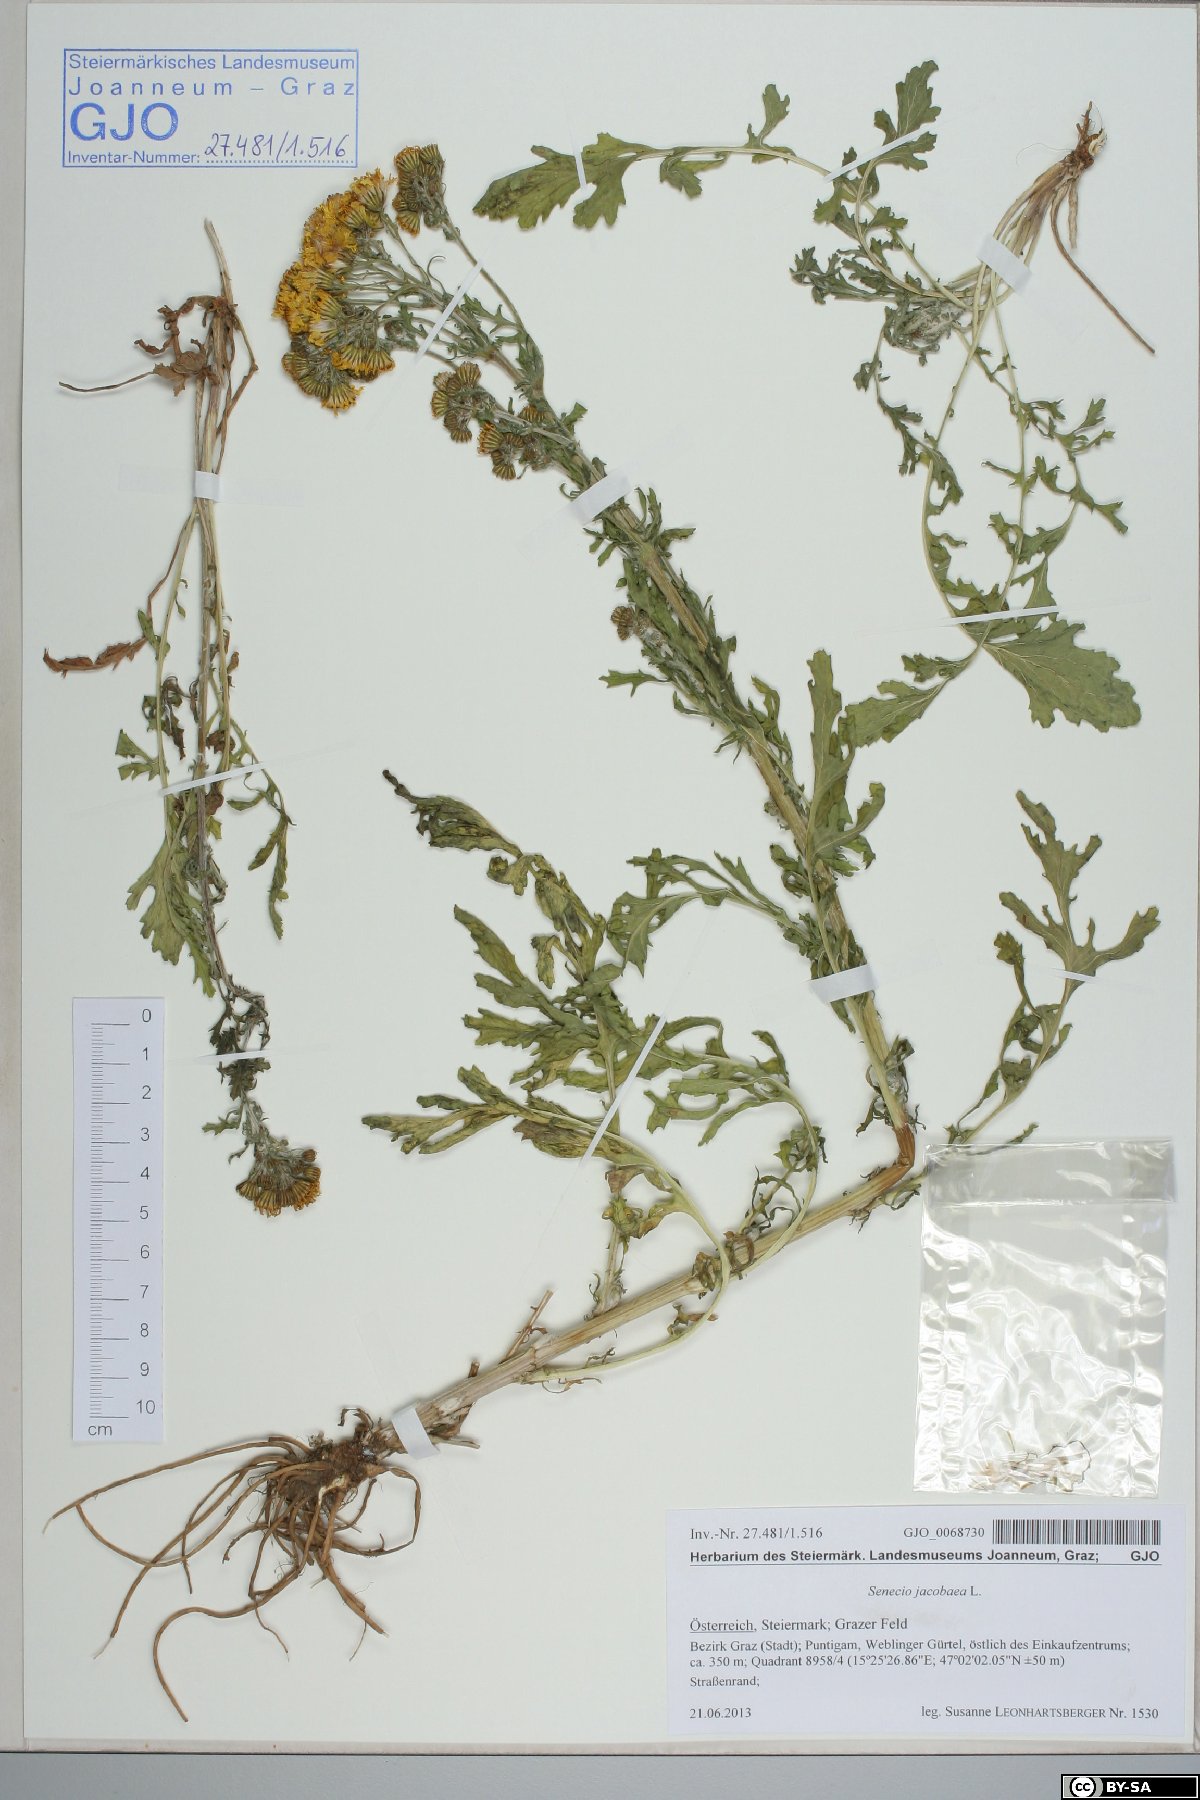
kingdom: Plantae
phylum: Tracheophyta
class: Magnoliopsida
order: Asterales
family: Asteraceae
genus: Jacobaea
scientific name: Jacobaea vulgaris
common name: Stinking willie
